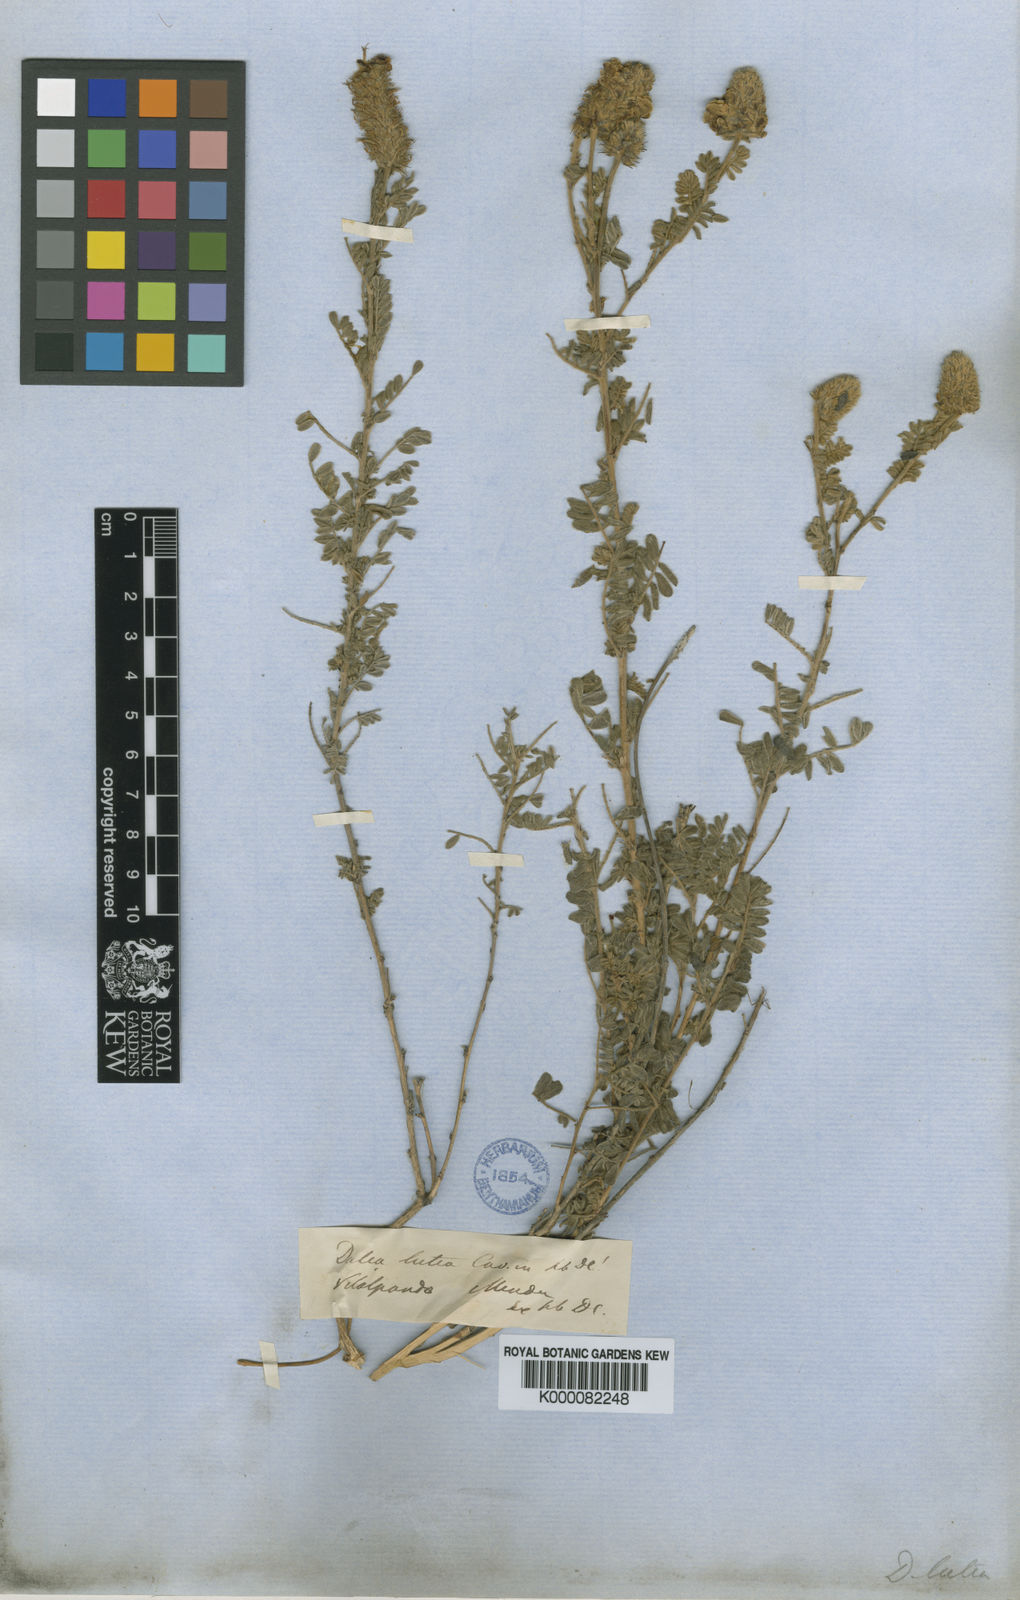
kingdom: Plantae
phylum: Tracheophyta
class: Magnoliopsida
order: Fabales
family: Fabaceae
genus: Dalea
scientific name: Dalea lutea
